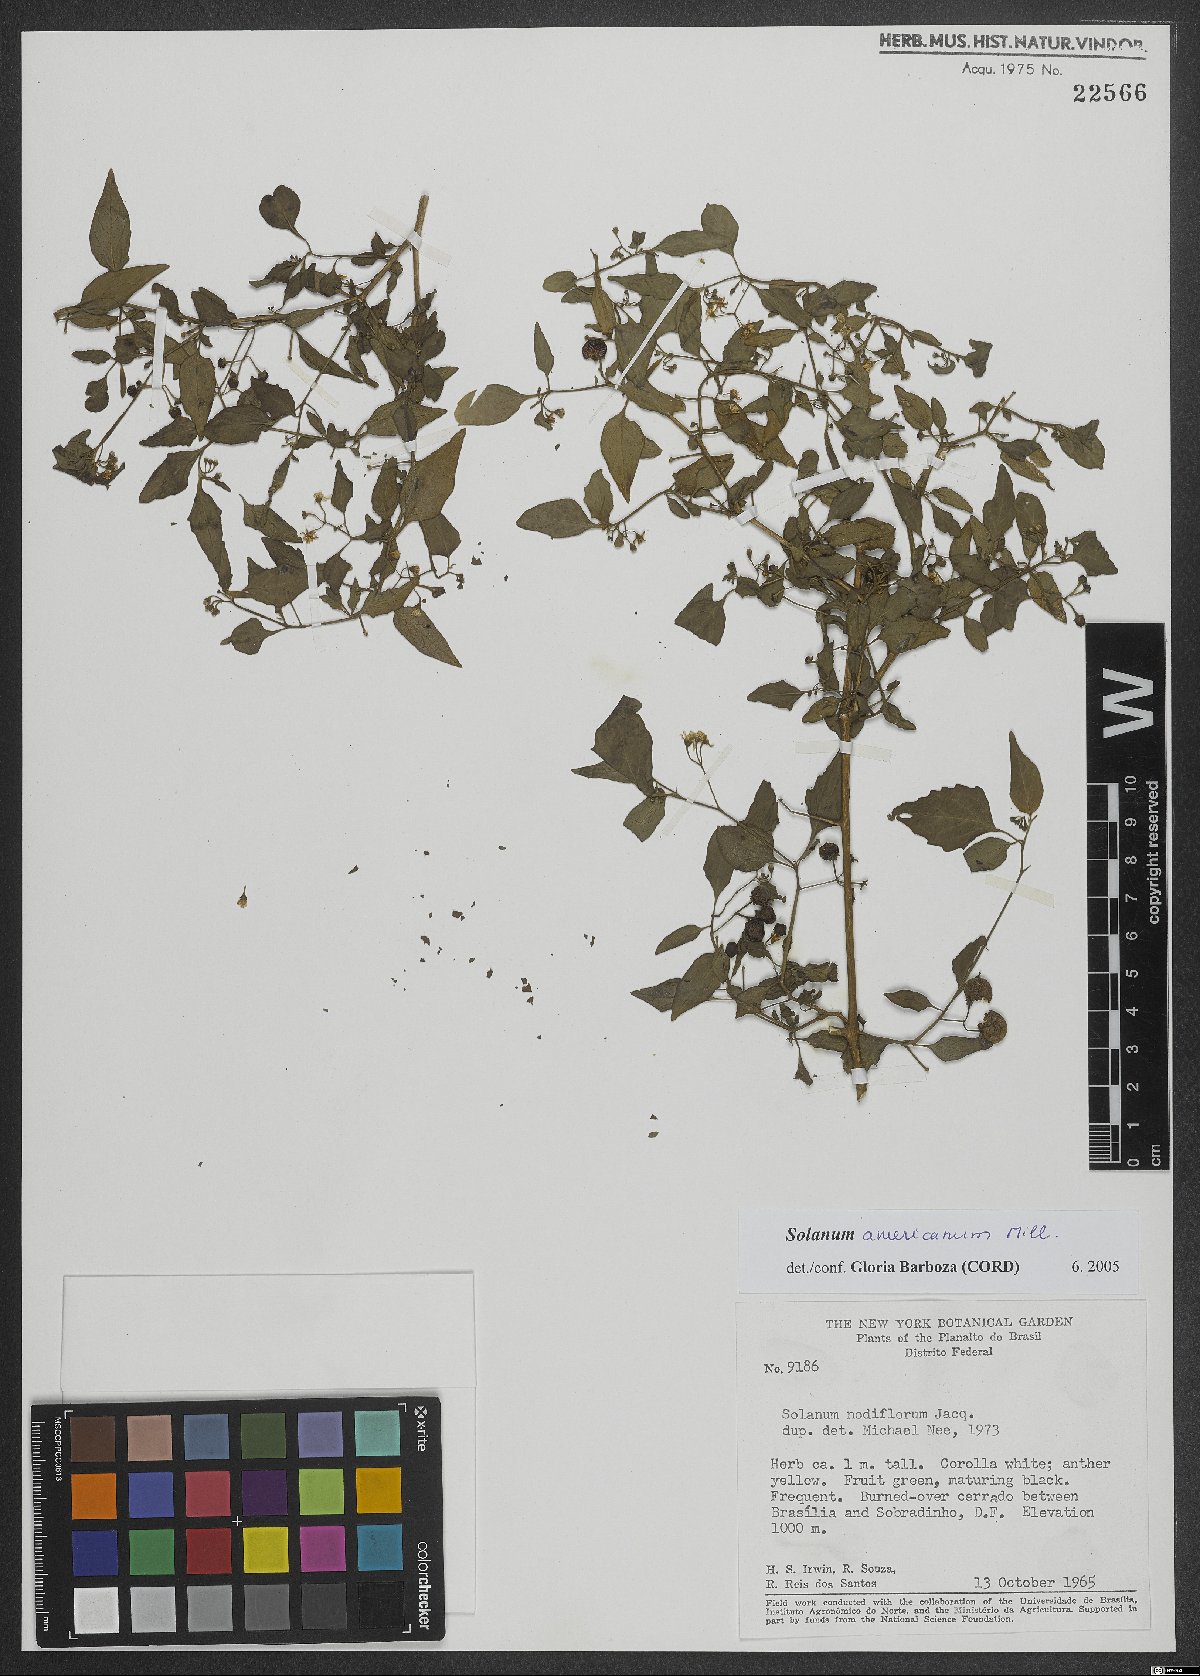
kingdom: Plantae
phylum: Tracheophyta
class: Magnoliopsida
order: Solanales
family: Solanaceae
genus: Solanum
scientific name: Solanum americanum
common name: American black nightshade
